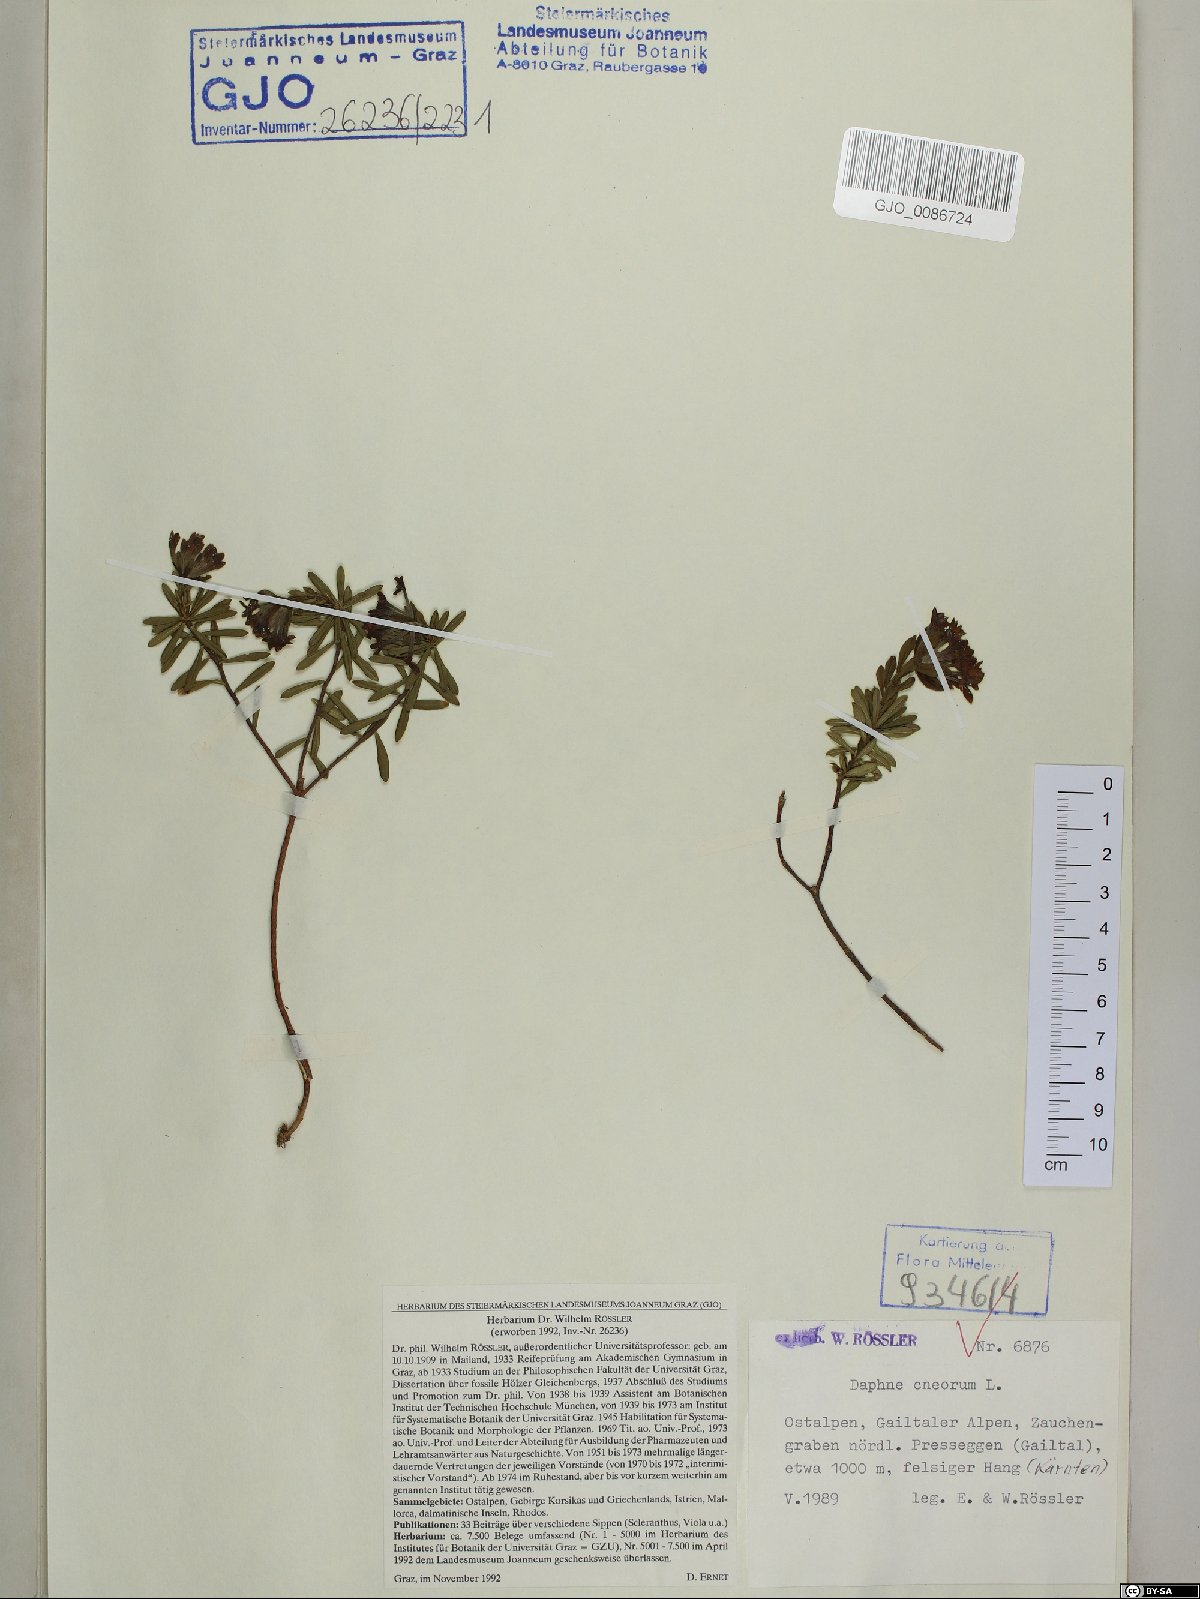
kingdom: Plantae
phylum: Tracheophyta
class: Magnoliopsida
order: Malvales
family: Thymelaeaceae
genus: Daphne
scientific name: Daphne cneorum
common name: Garland-flower
